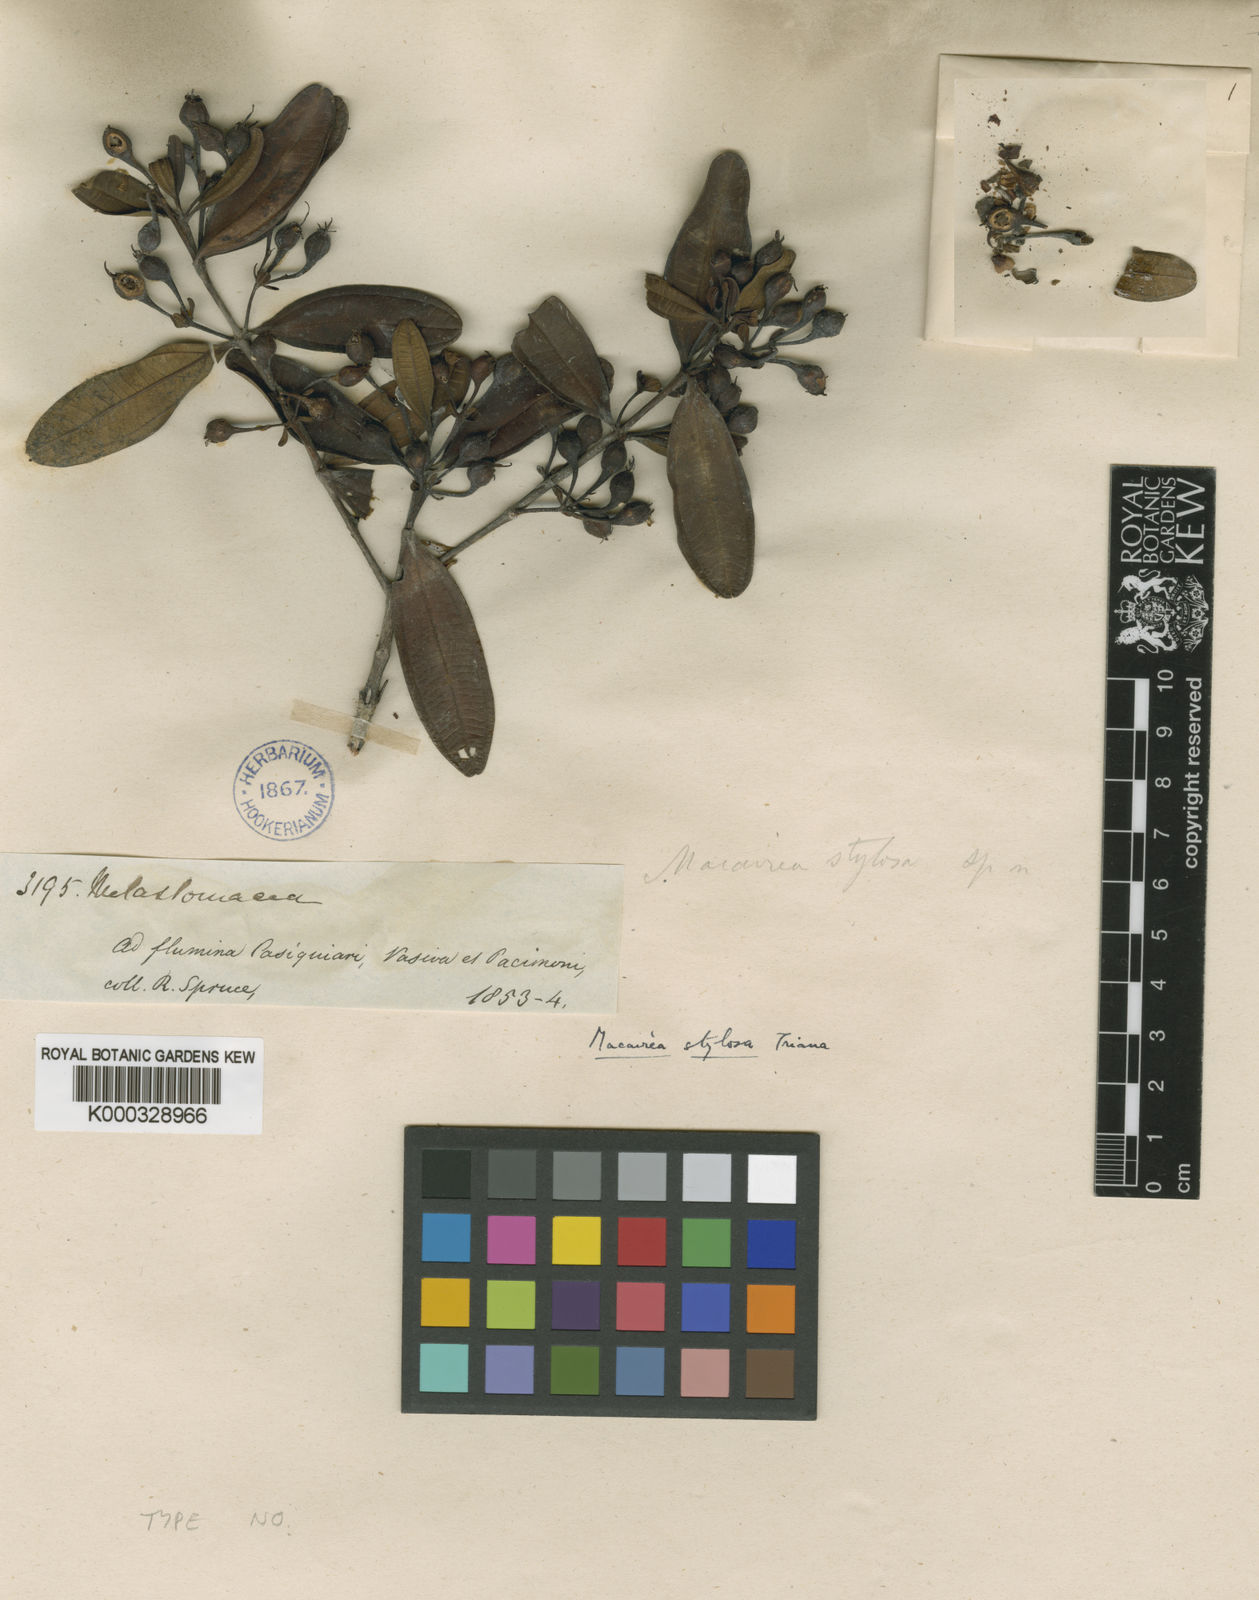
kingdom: Plantae
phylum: Tracheophyta
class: Magnoliopsida
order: Myrtales
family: Melastomataceae
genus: Macairea
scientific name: Macairea stylosa
